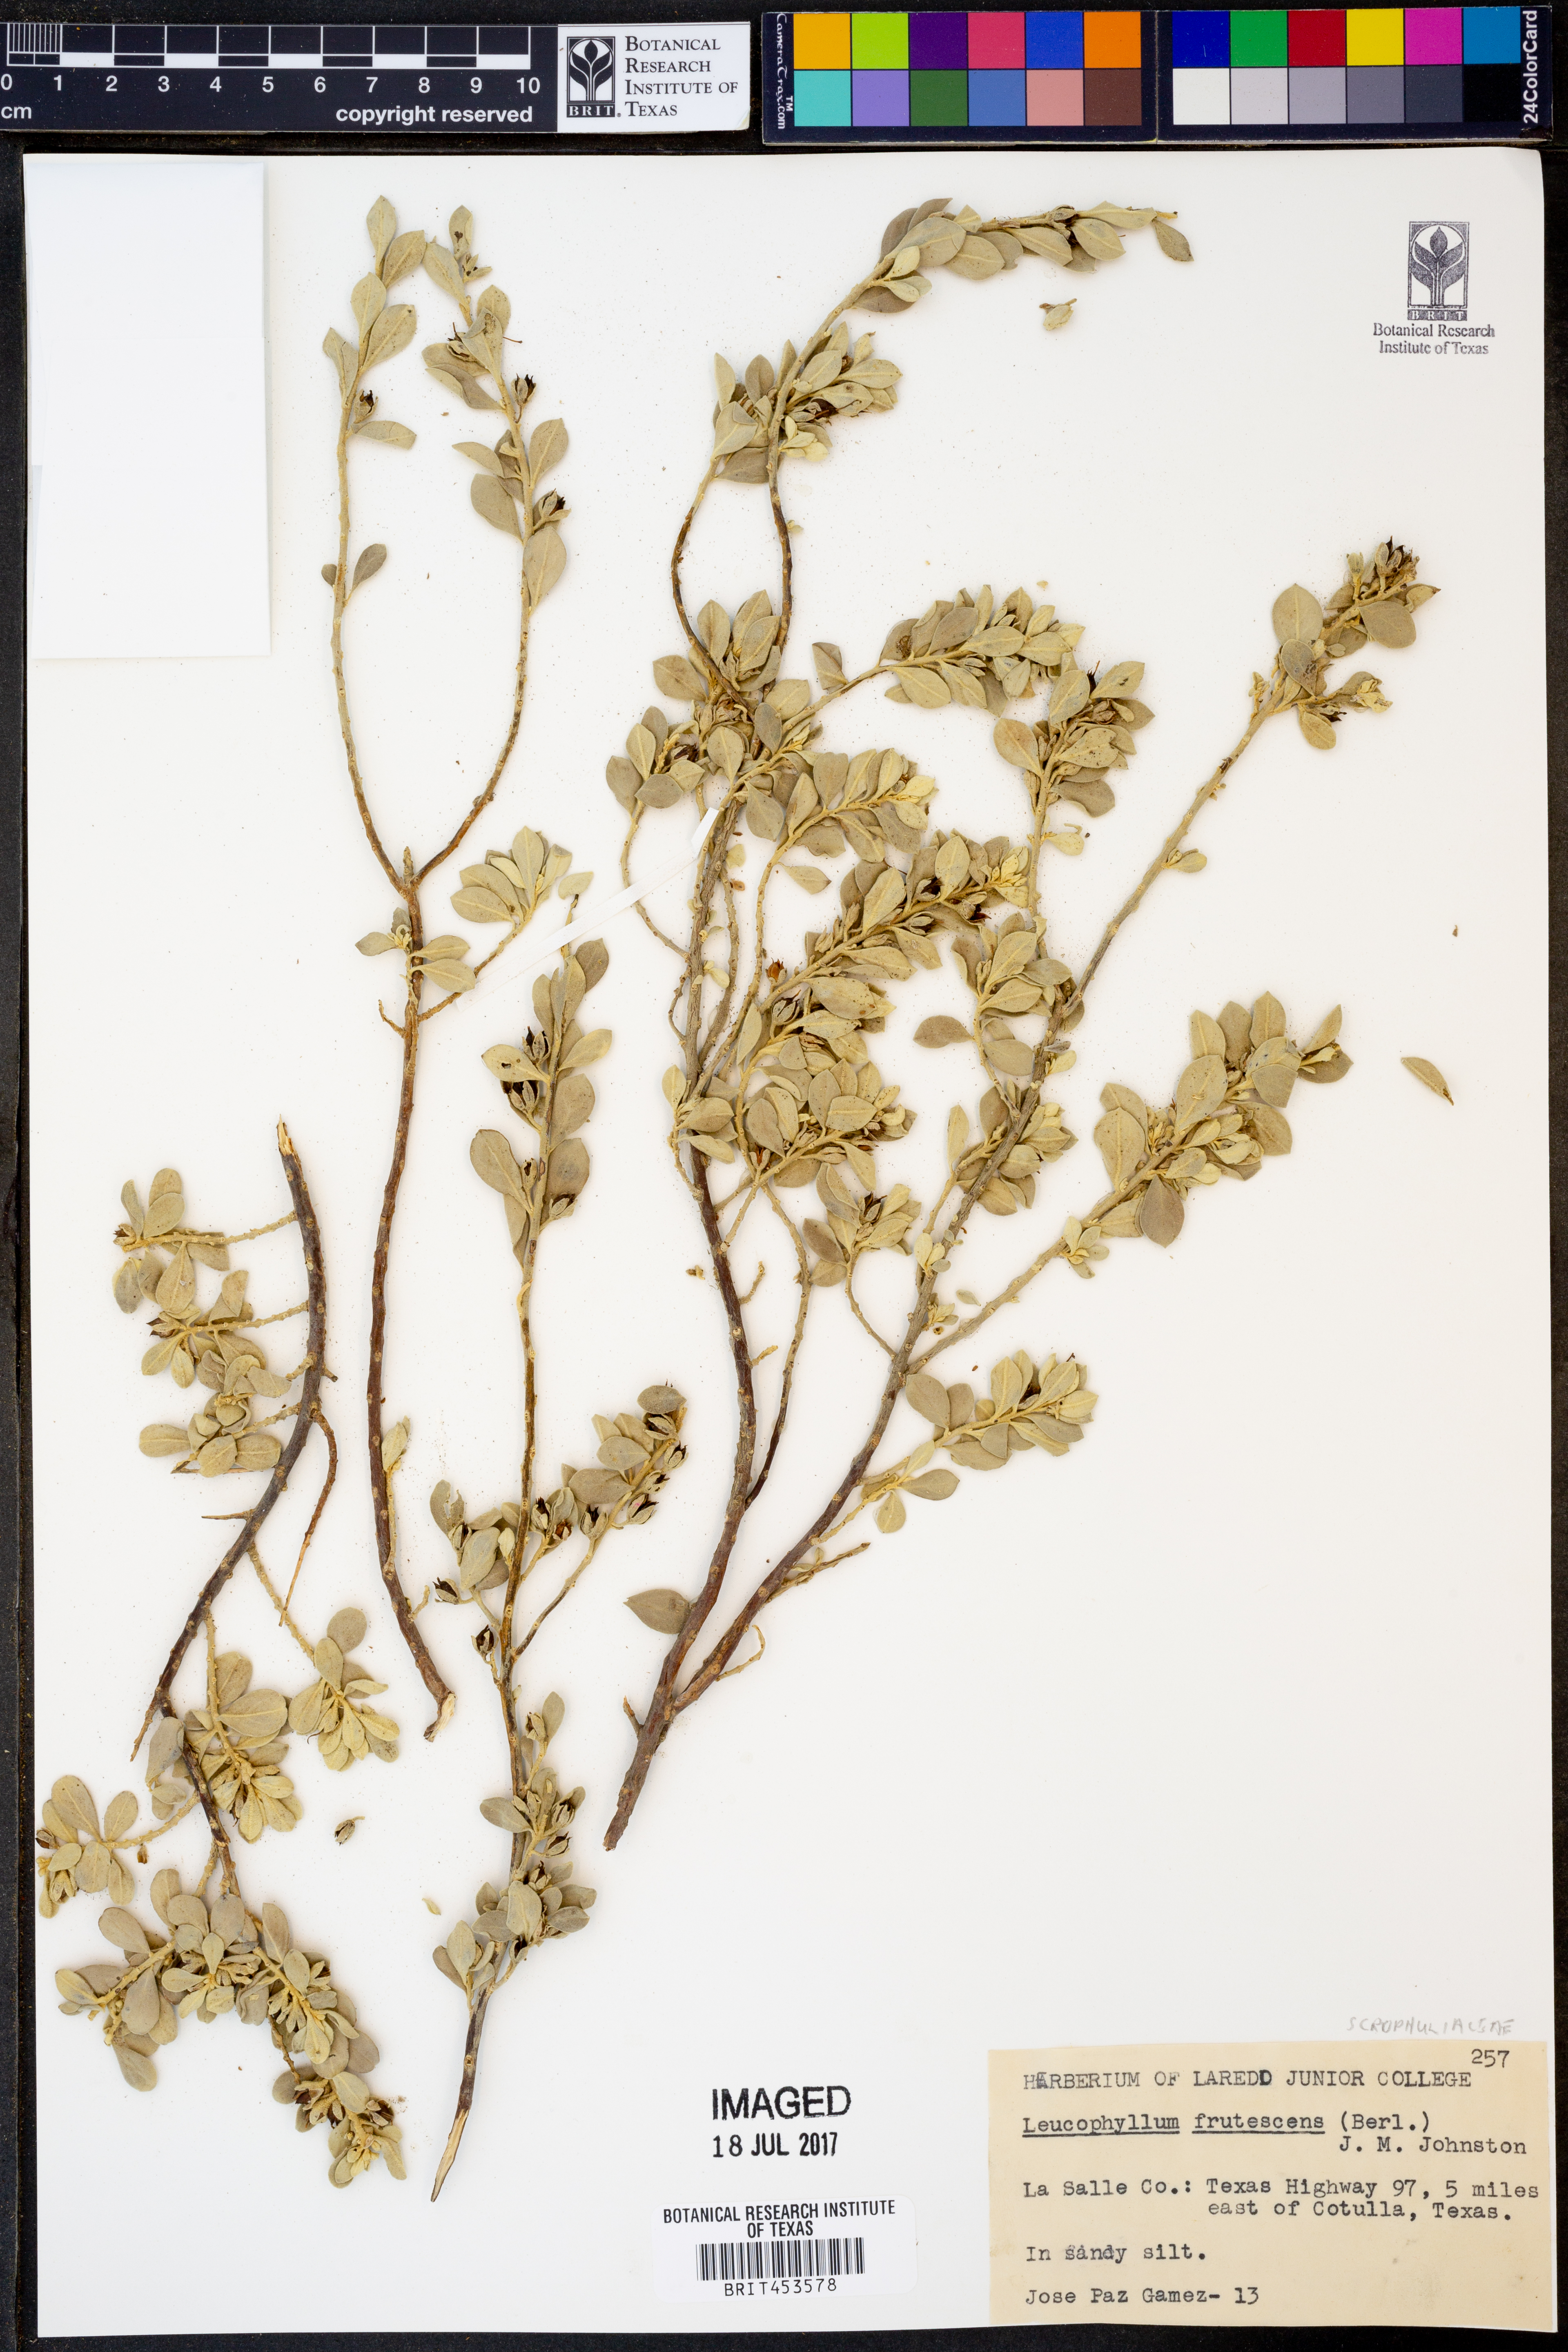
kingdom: Plantae
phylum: Tracheophyta
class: Magnoliopsida
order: Lamiales
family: Scrophulariaceae
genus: Leucophyllum
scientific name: Leucophyllum frutescens
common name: Texas silverleaf
